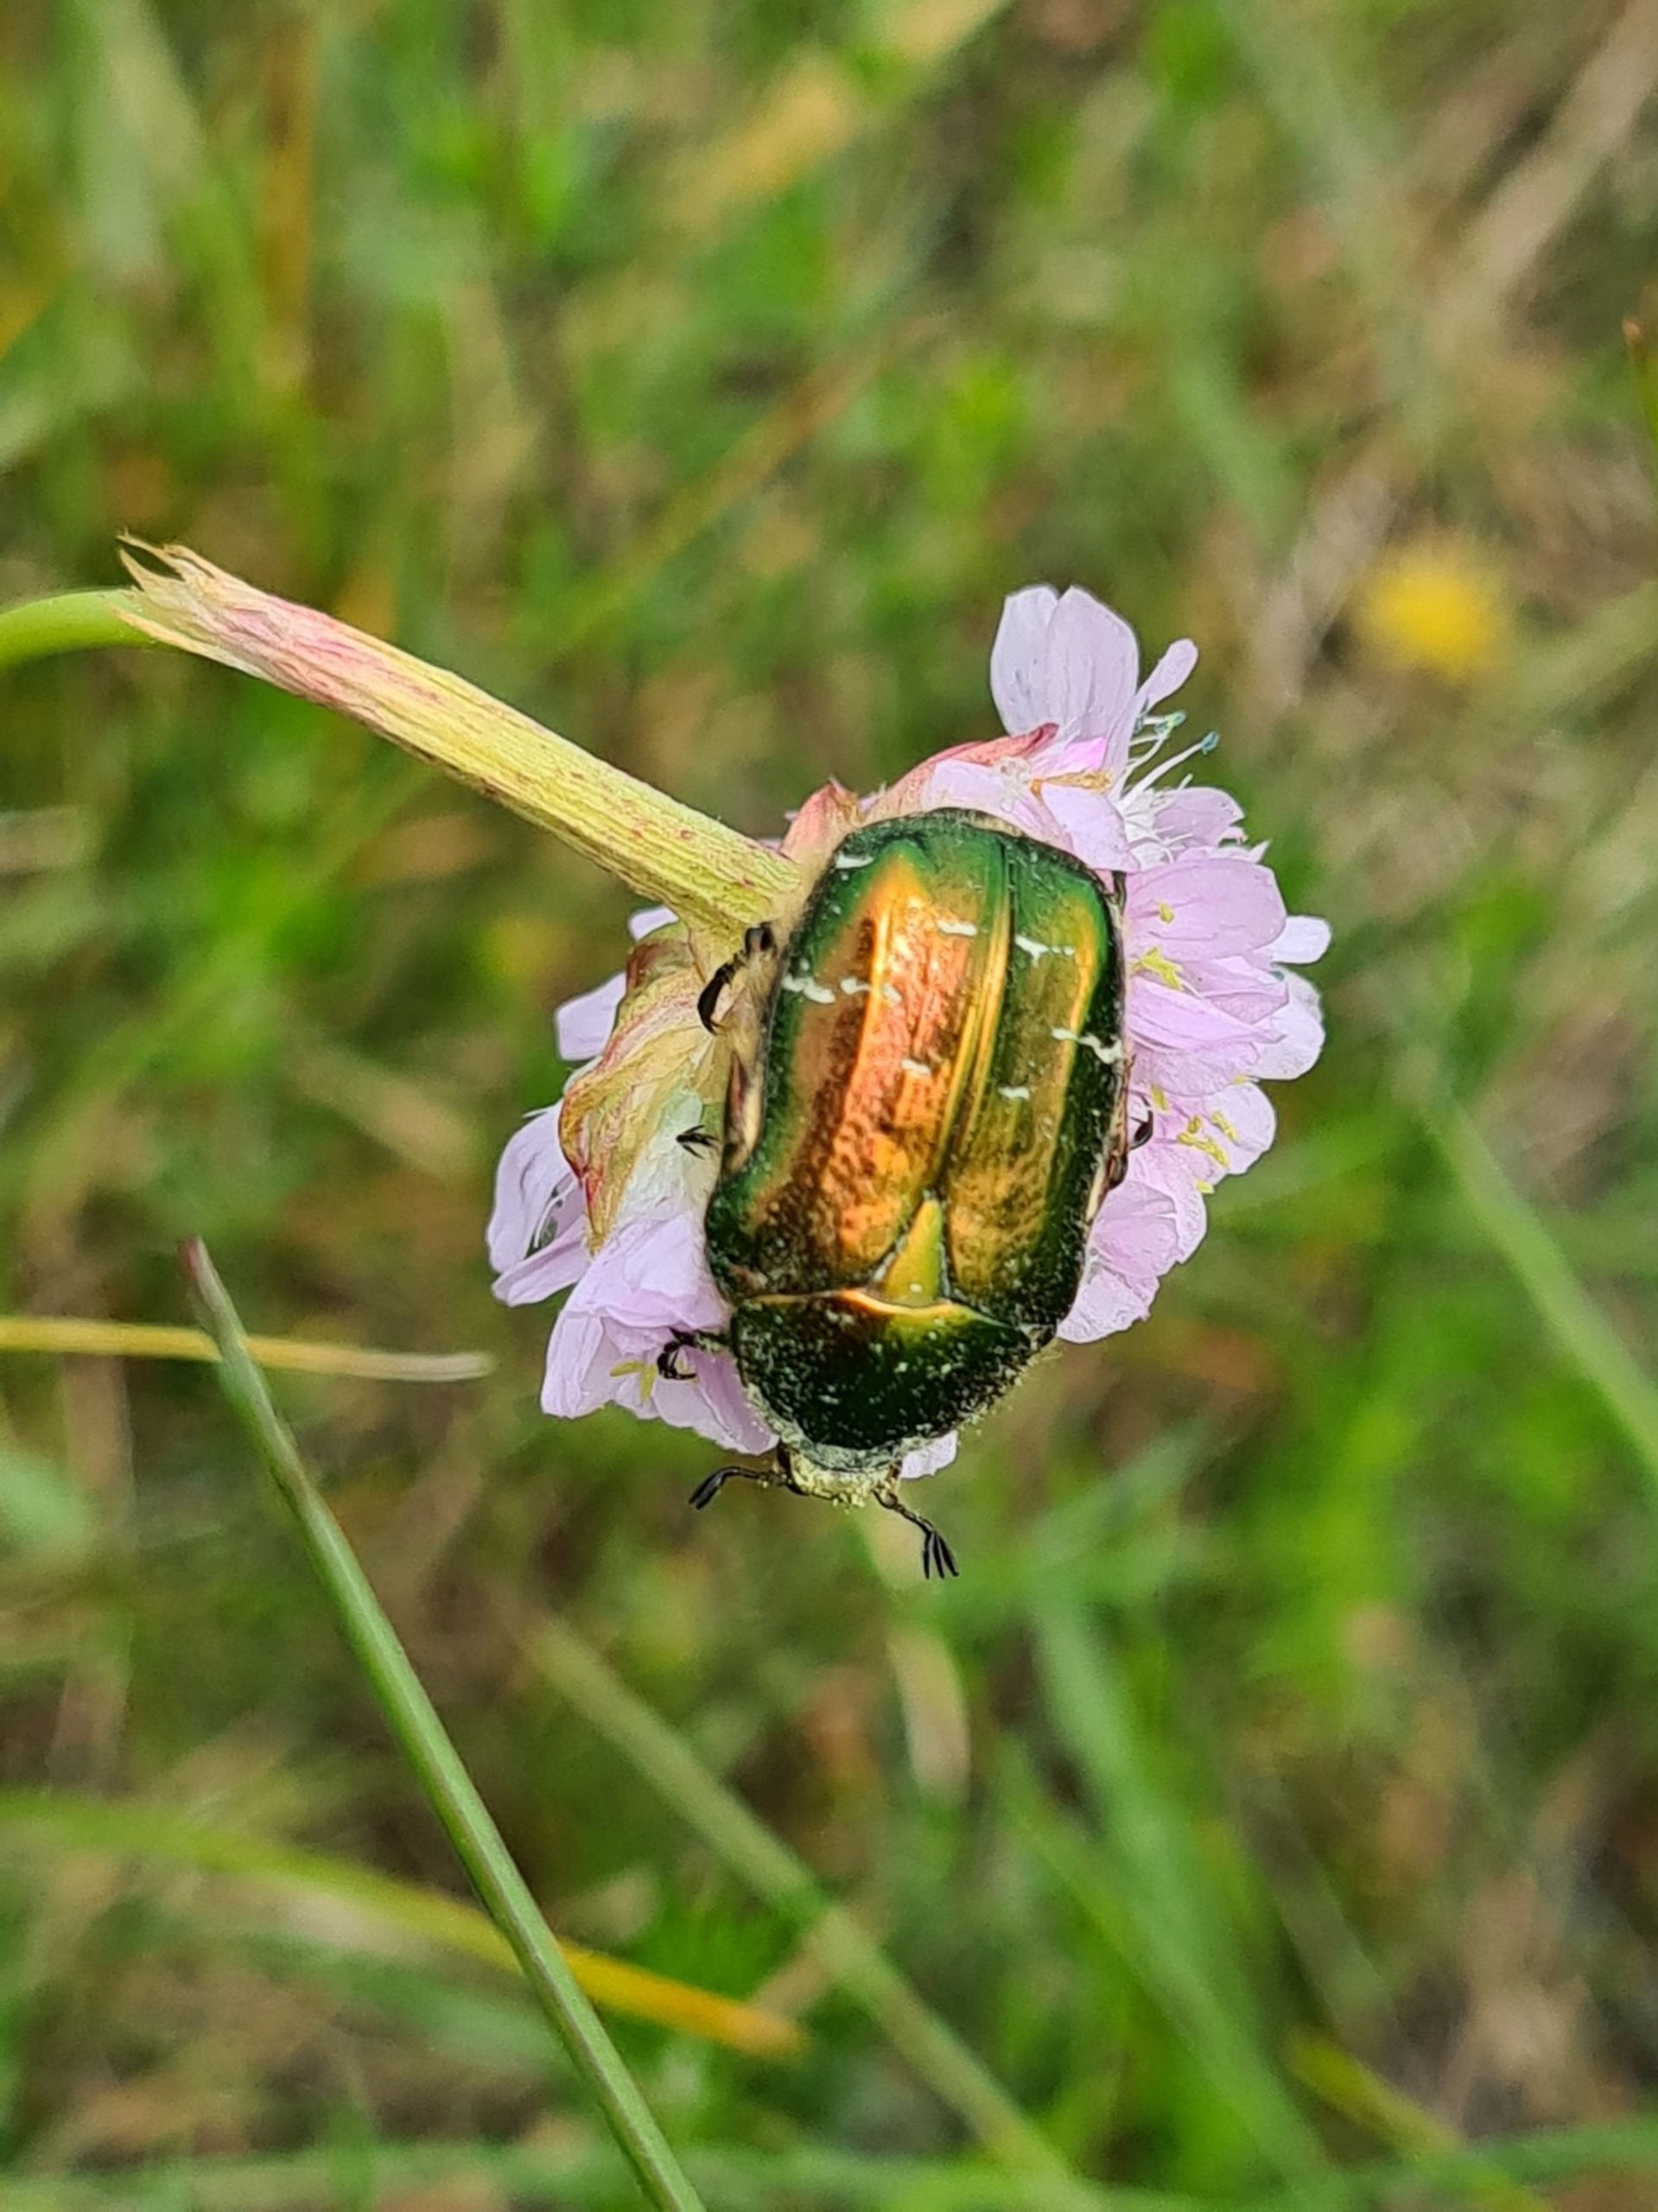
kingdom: Animalia
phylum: Arthropoda
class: Insecta
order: Coleoptera
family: Scarabaeidae
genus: Cetonia
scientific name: Cetonia aurata
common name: Grøn guldbasse
